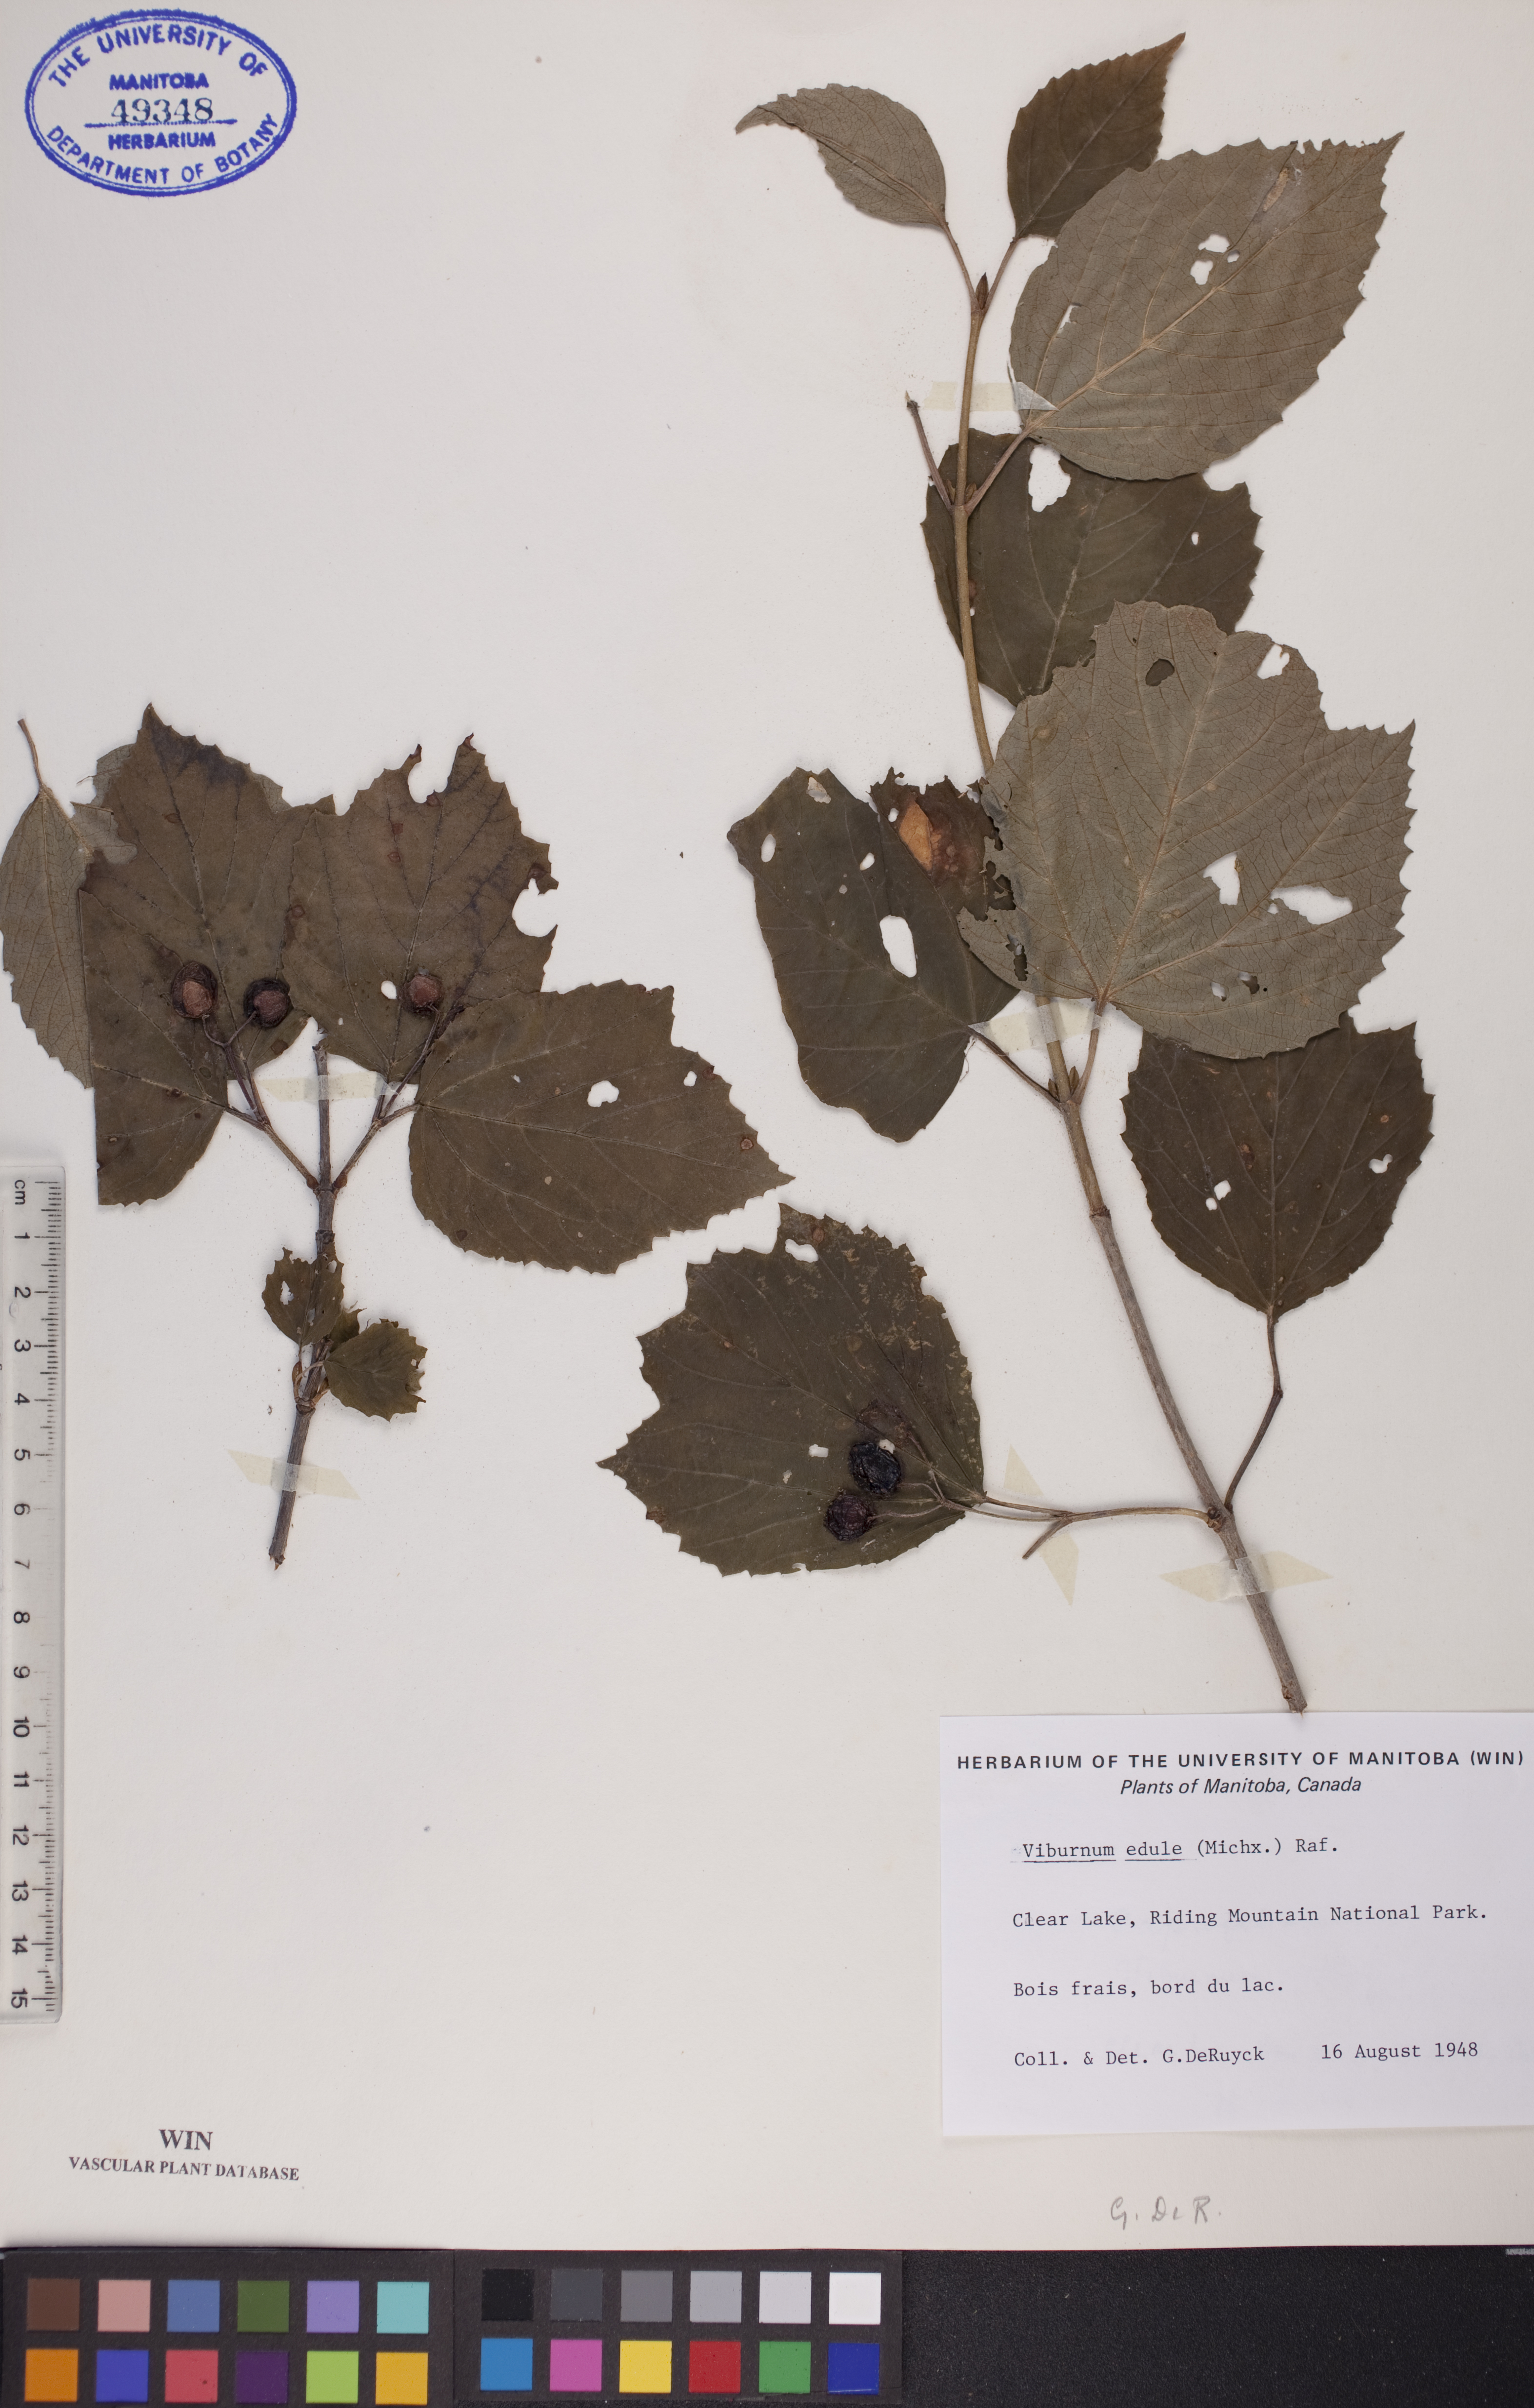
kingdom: Plantae
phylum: Tracheophyta
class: Magnoliopsida
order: Dipsacales
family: Viburnaceae
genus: Viburnum
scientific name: Viburnum edule
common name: Mooseberry
